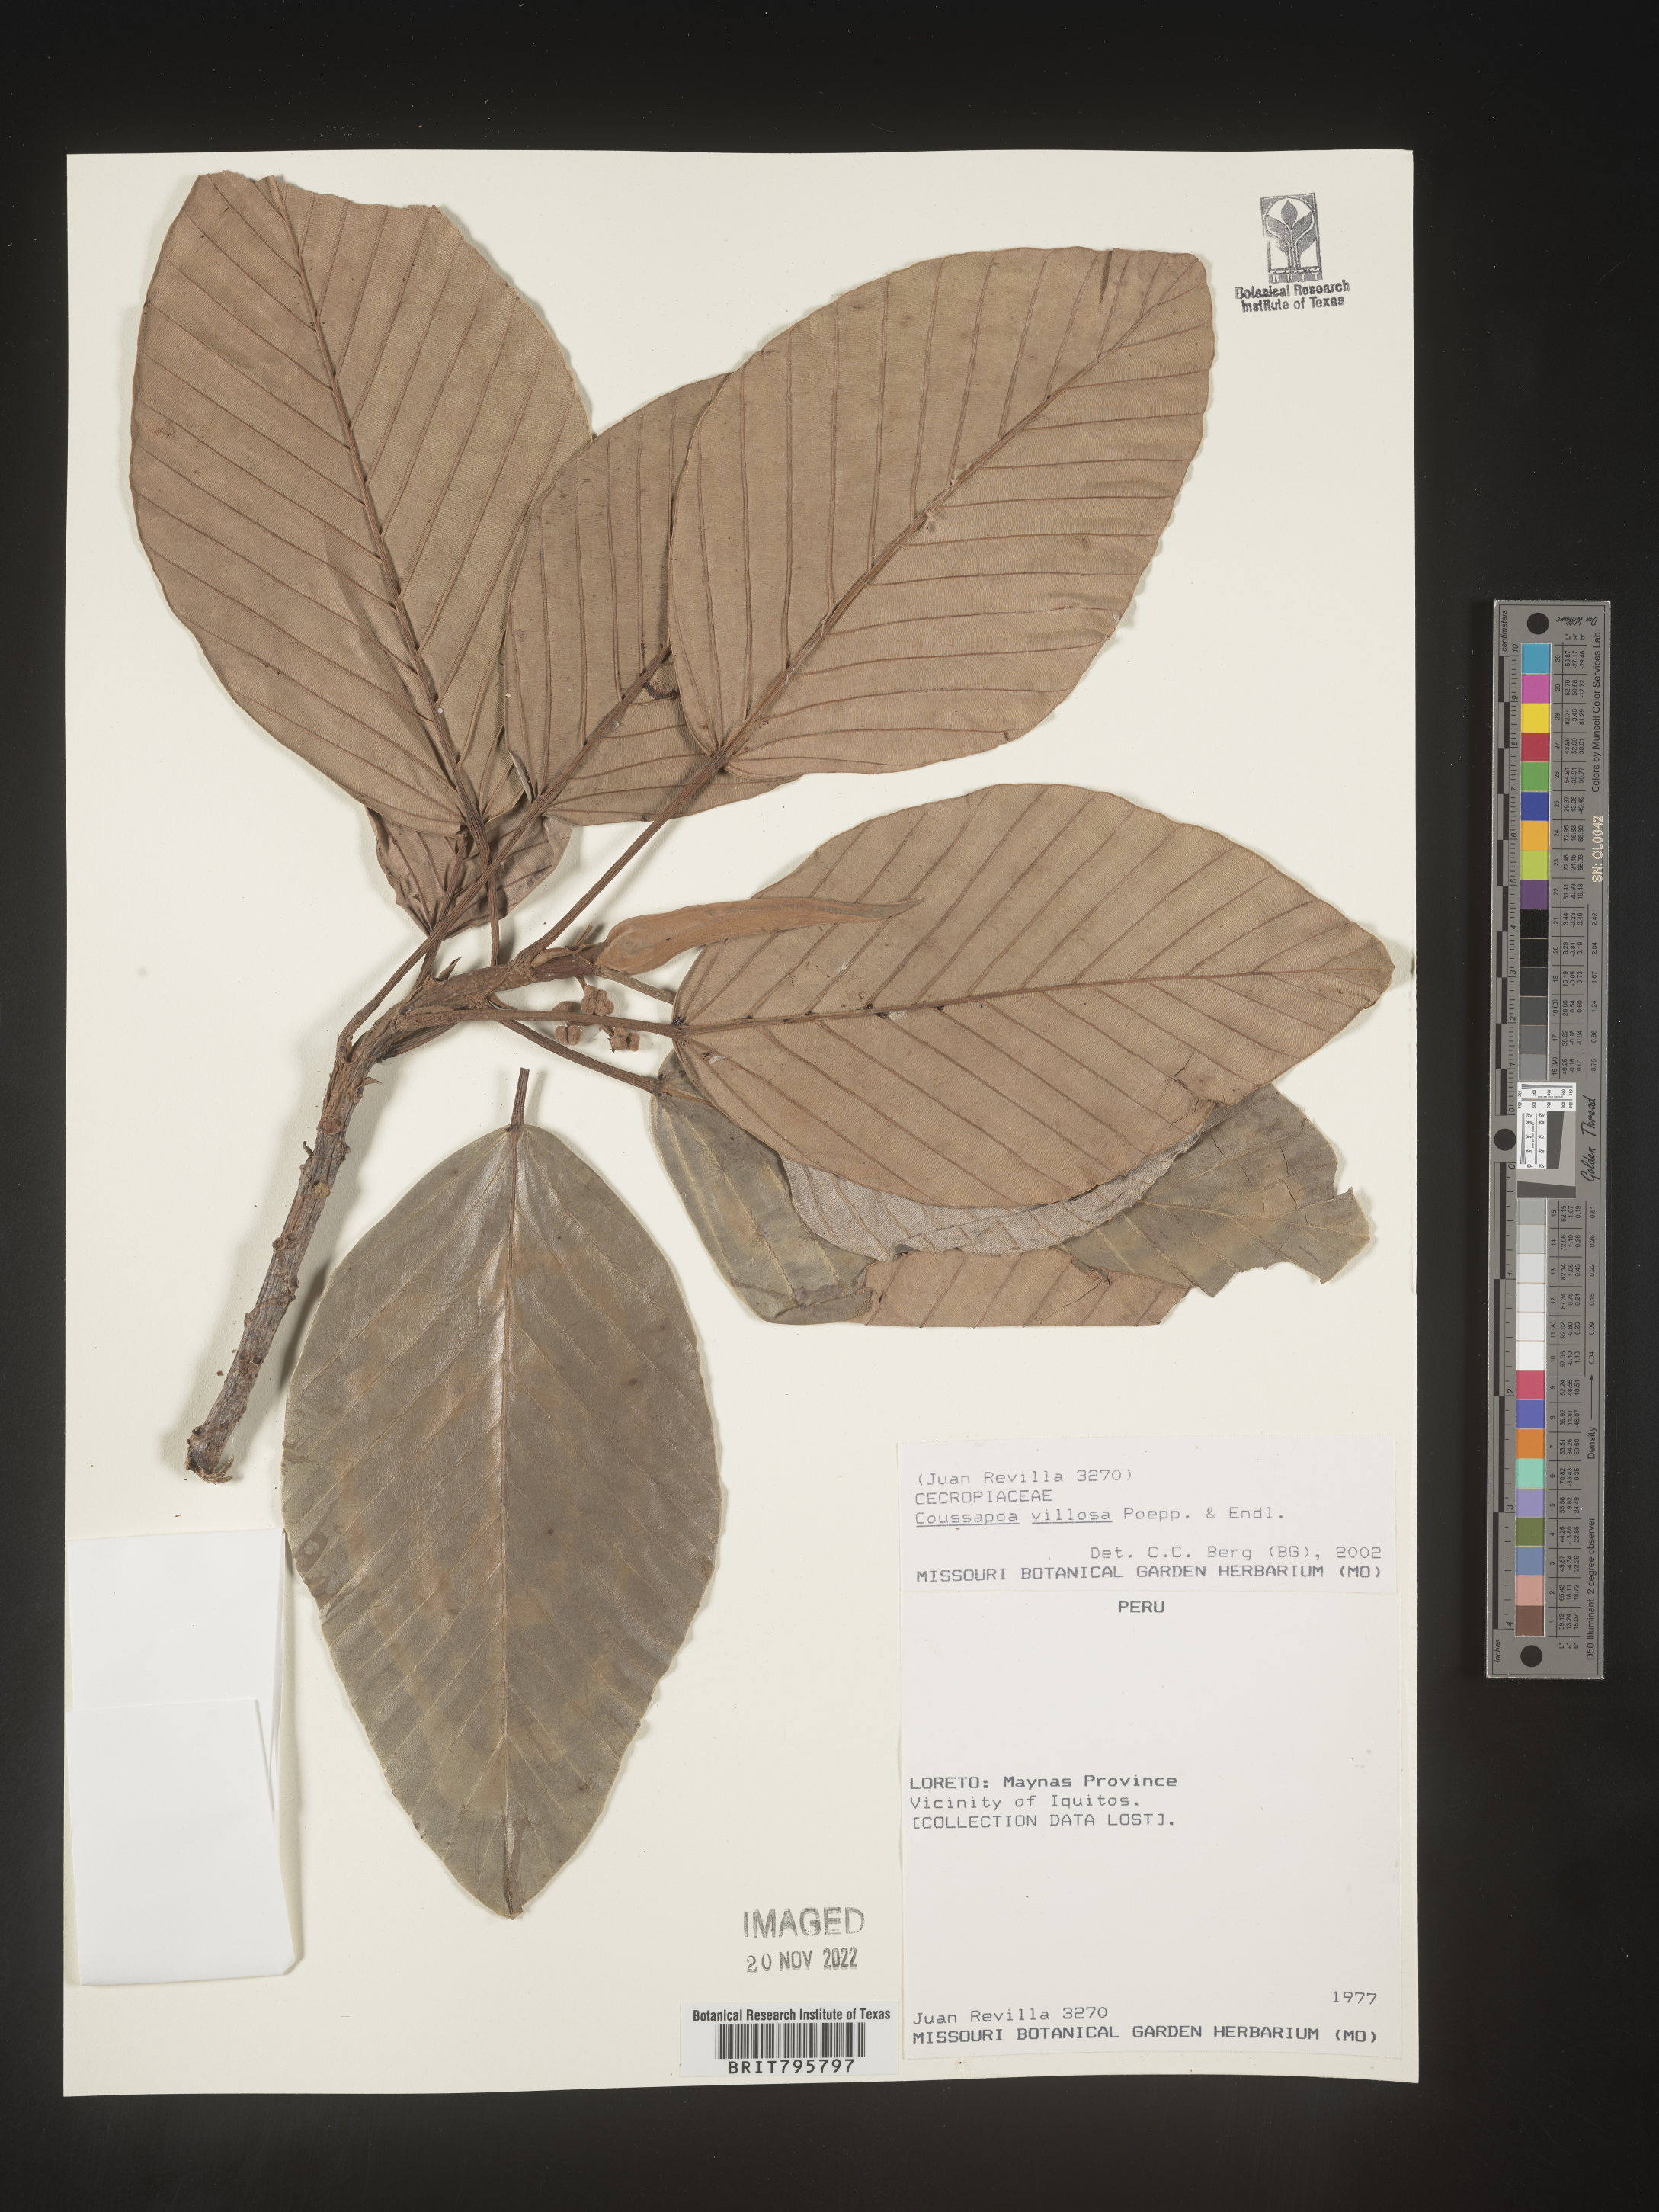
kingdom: Plantae
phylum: Tracheophyta
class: Magnoliopsida
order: Rosales
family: Urticaceae
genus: Coussapoa
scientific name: Coussapoa
